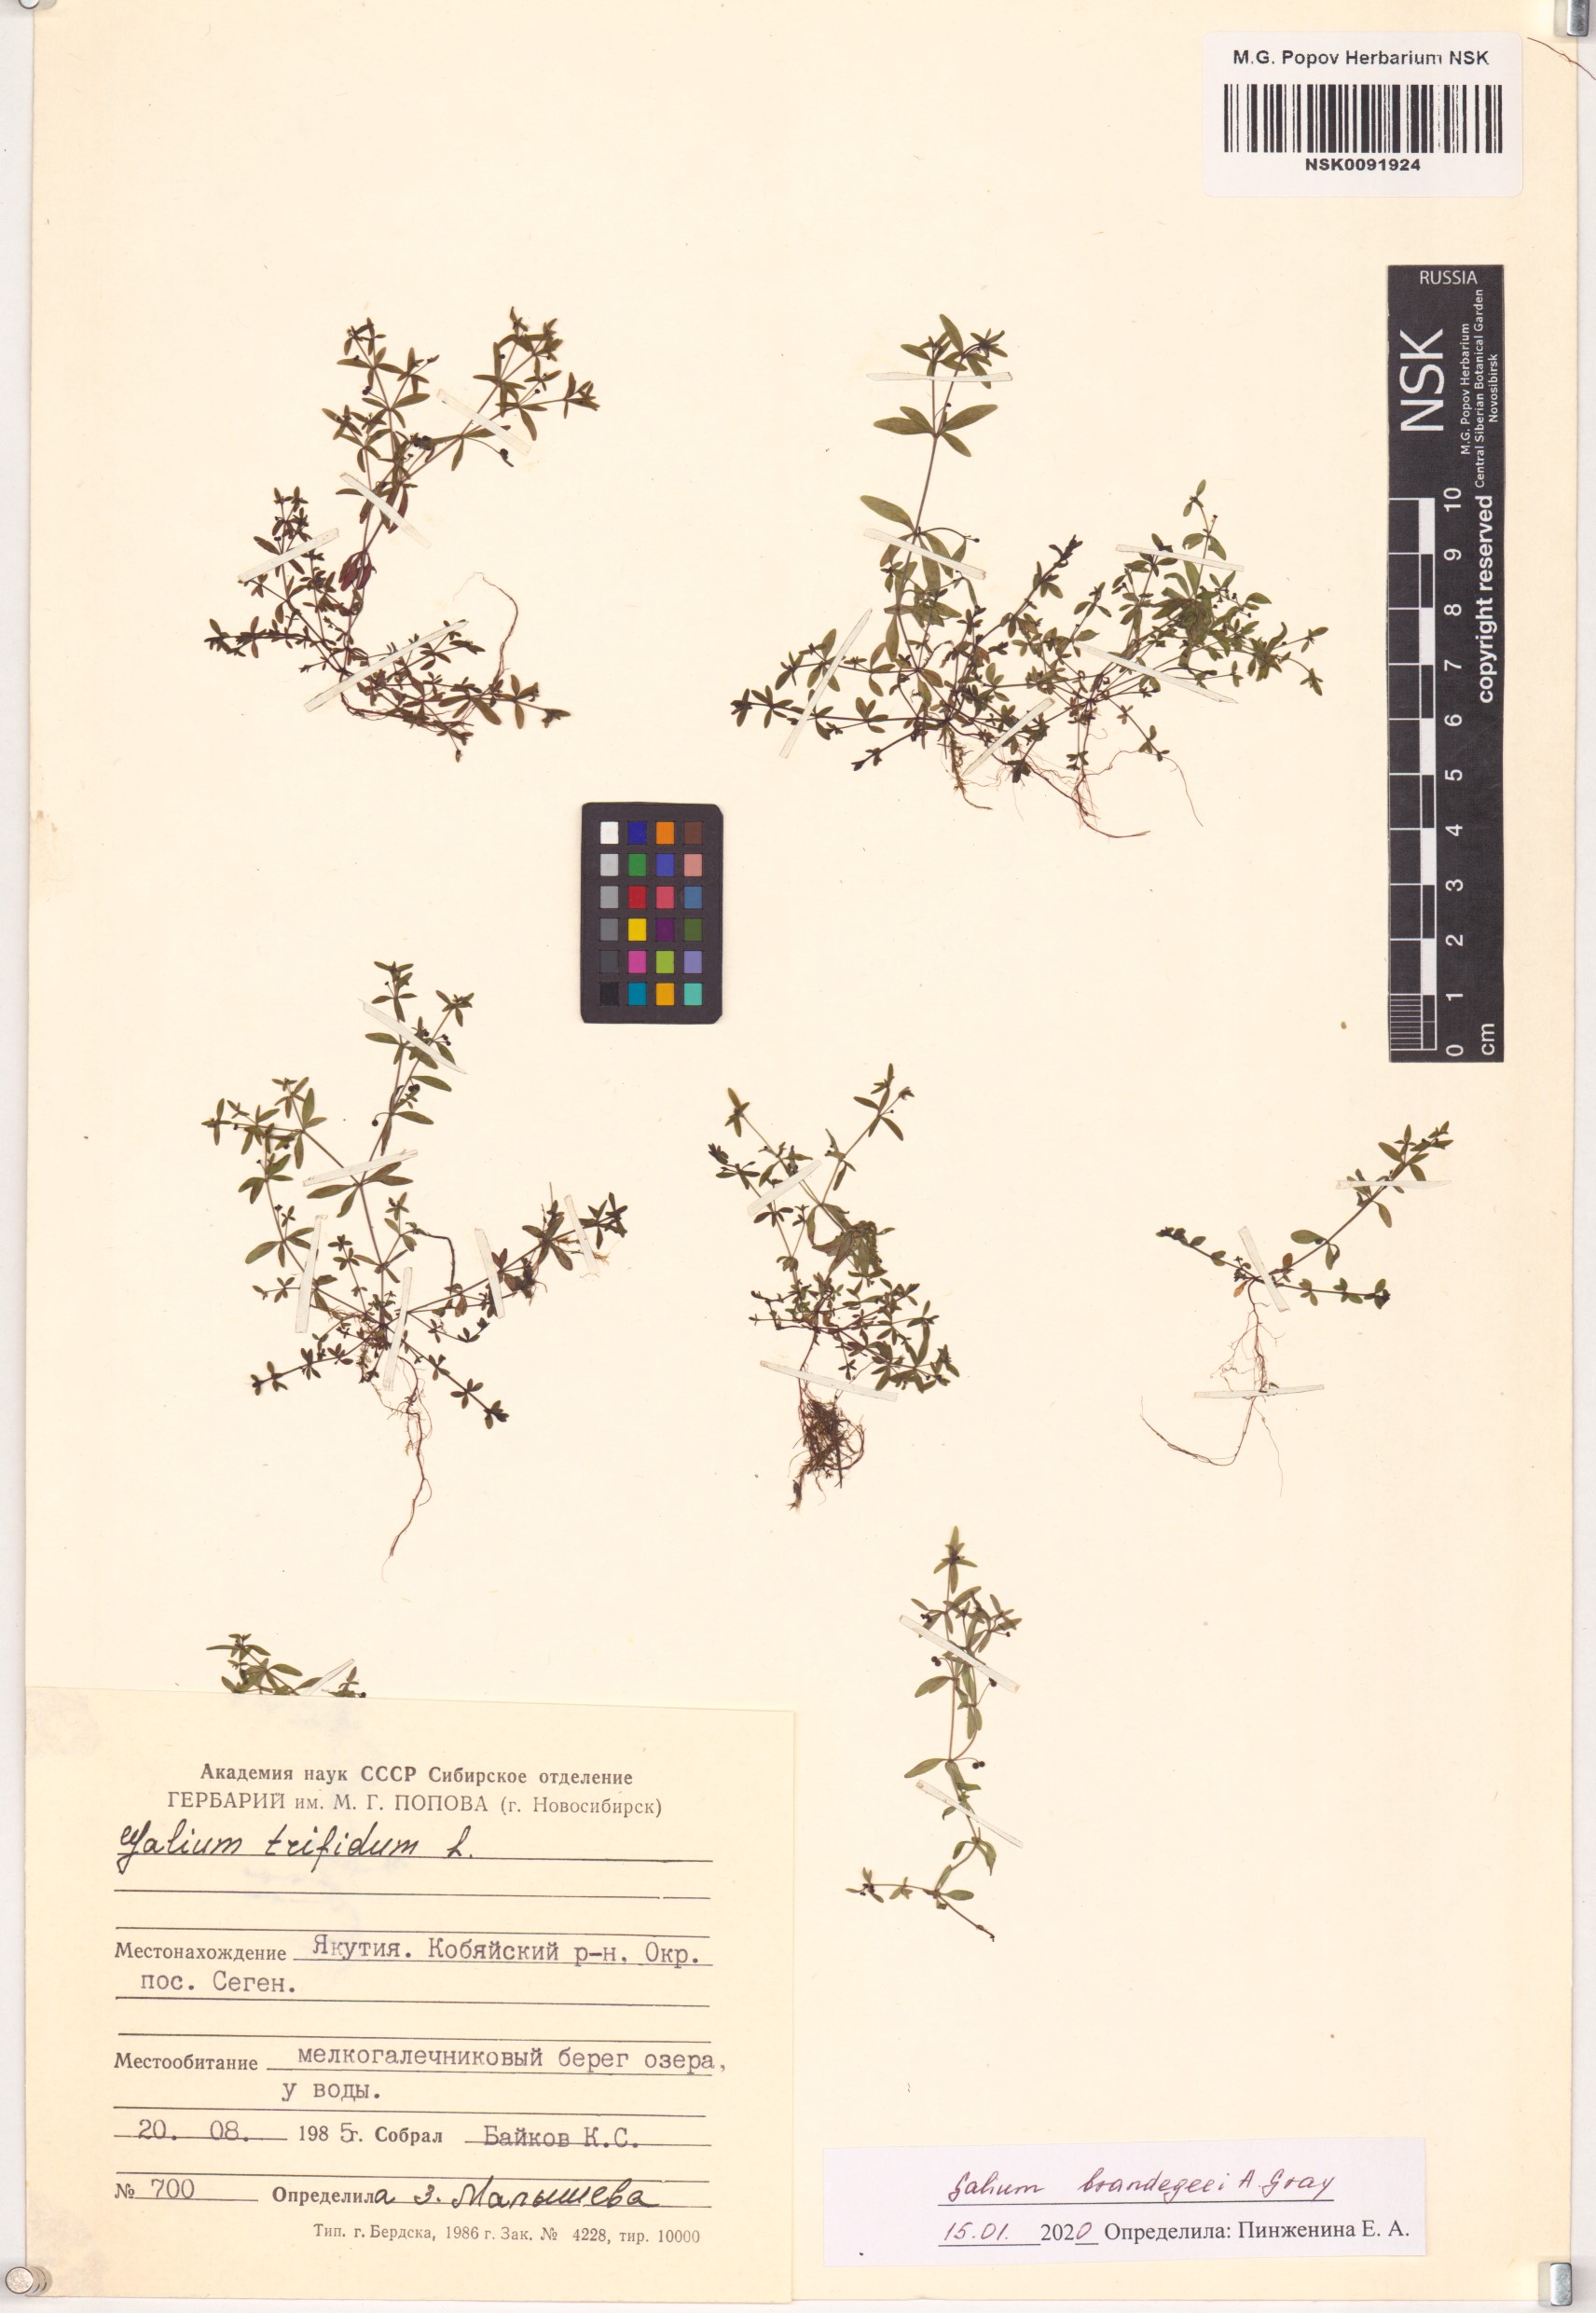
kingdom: Plantae
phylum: Tracheophyta
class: Magnoliopsida
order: Gentianales
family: Rubiaceae
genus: Galium
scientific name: Galium trifidum
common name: Small bedstraw
